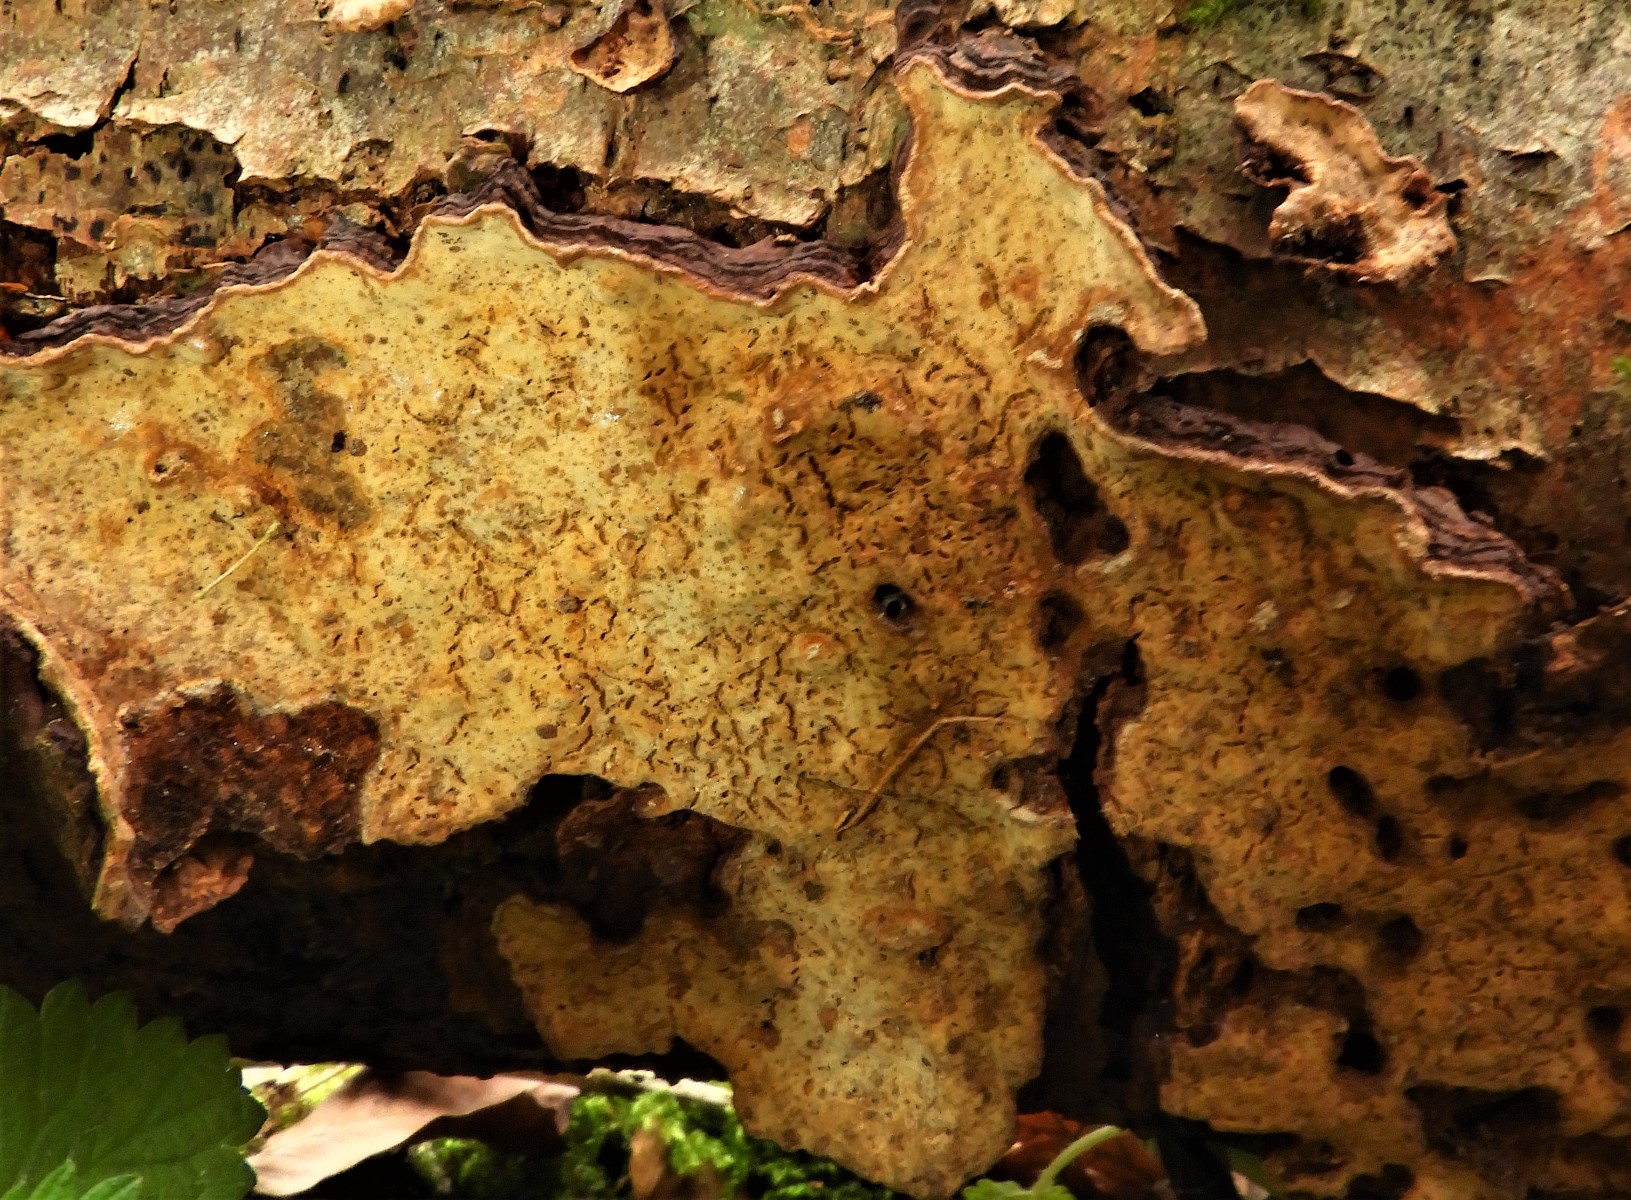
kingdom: Fungi
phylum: Basidiomycota
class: Agaricomycetes
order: Russulales
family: Stereaceae
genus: Stereum
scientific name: Stereum rugosum
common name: rynket lædersvamp
